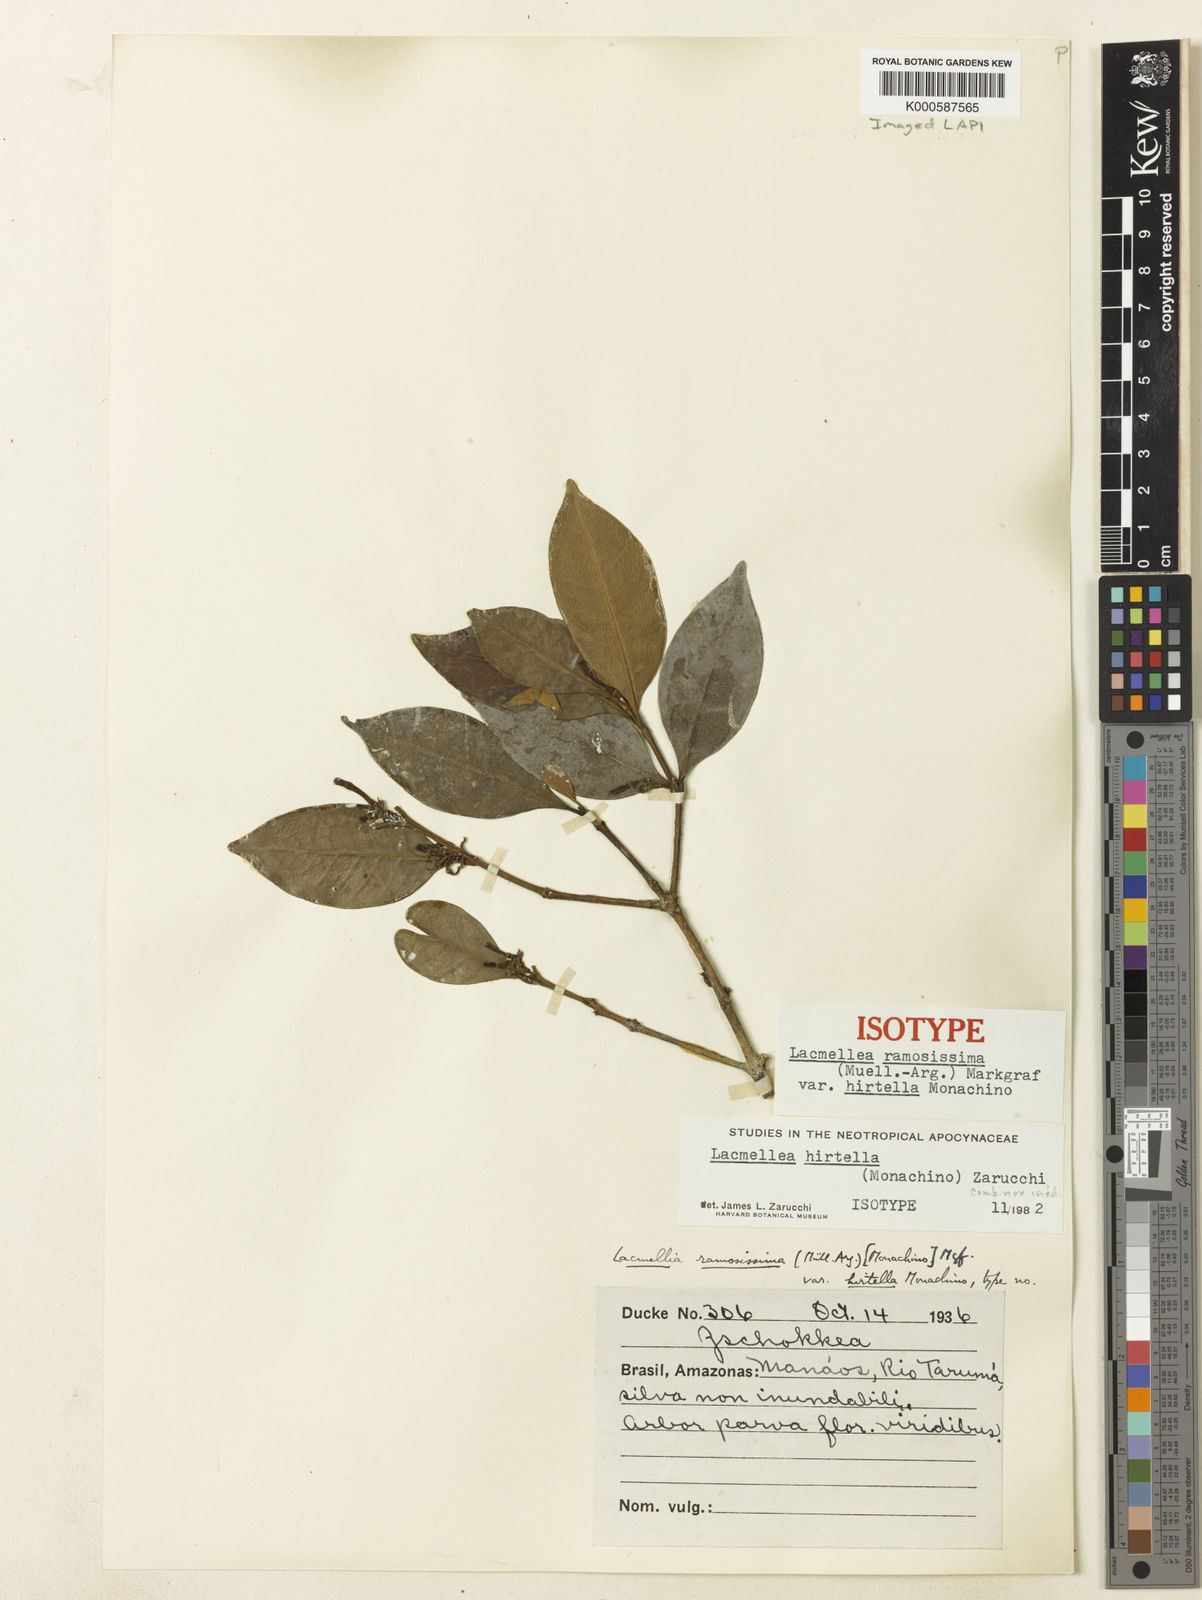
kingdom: Plantae
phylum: Tracheophyta
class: Magnoliopsida
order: Gentianales
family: Apocynaceae
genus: Lacmellea
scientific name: Lacmellea
